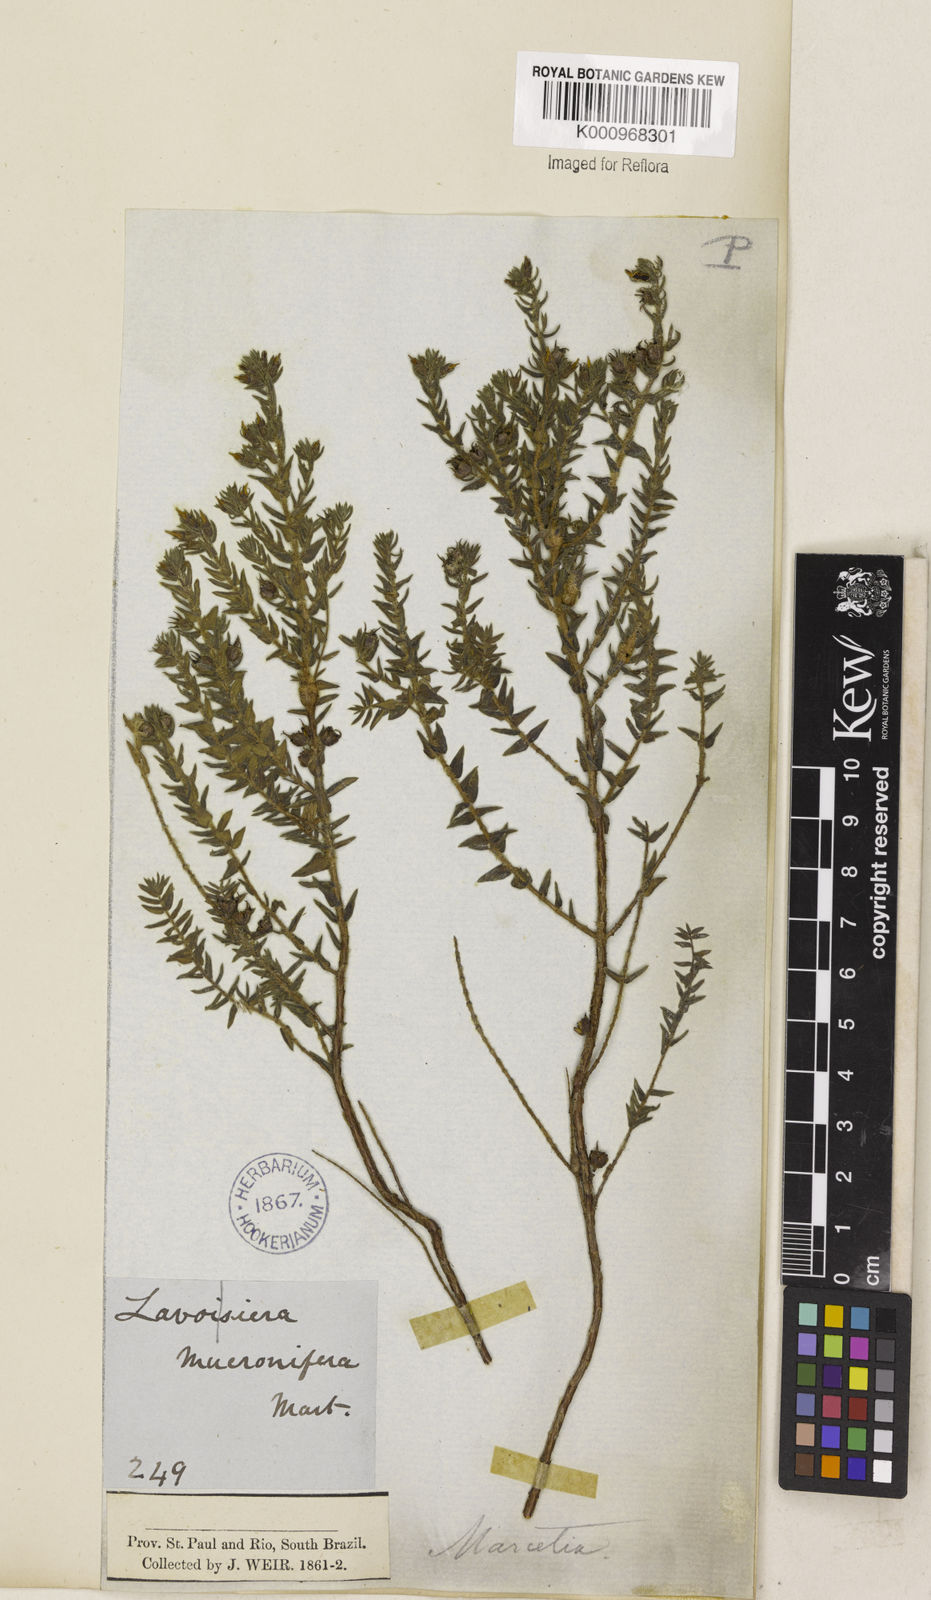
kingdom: Plantae
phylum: Tracheophyta
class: Magnoliopsida
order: Myrtales
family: Melastomataceae
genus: Marcetia
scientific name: Marcetia taxifolia
